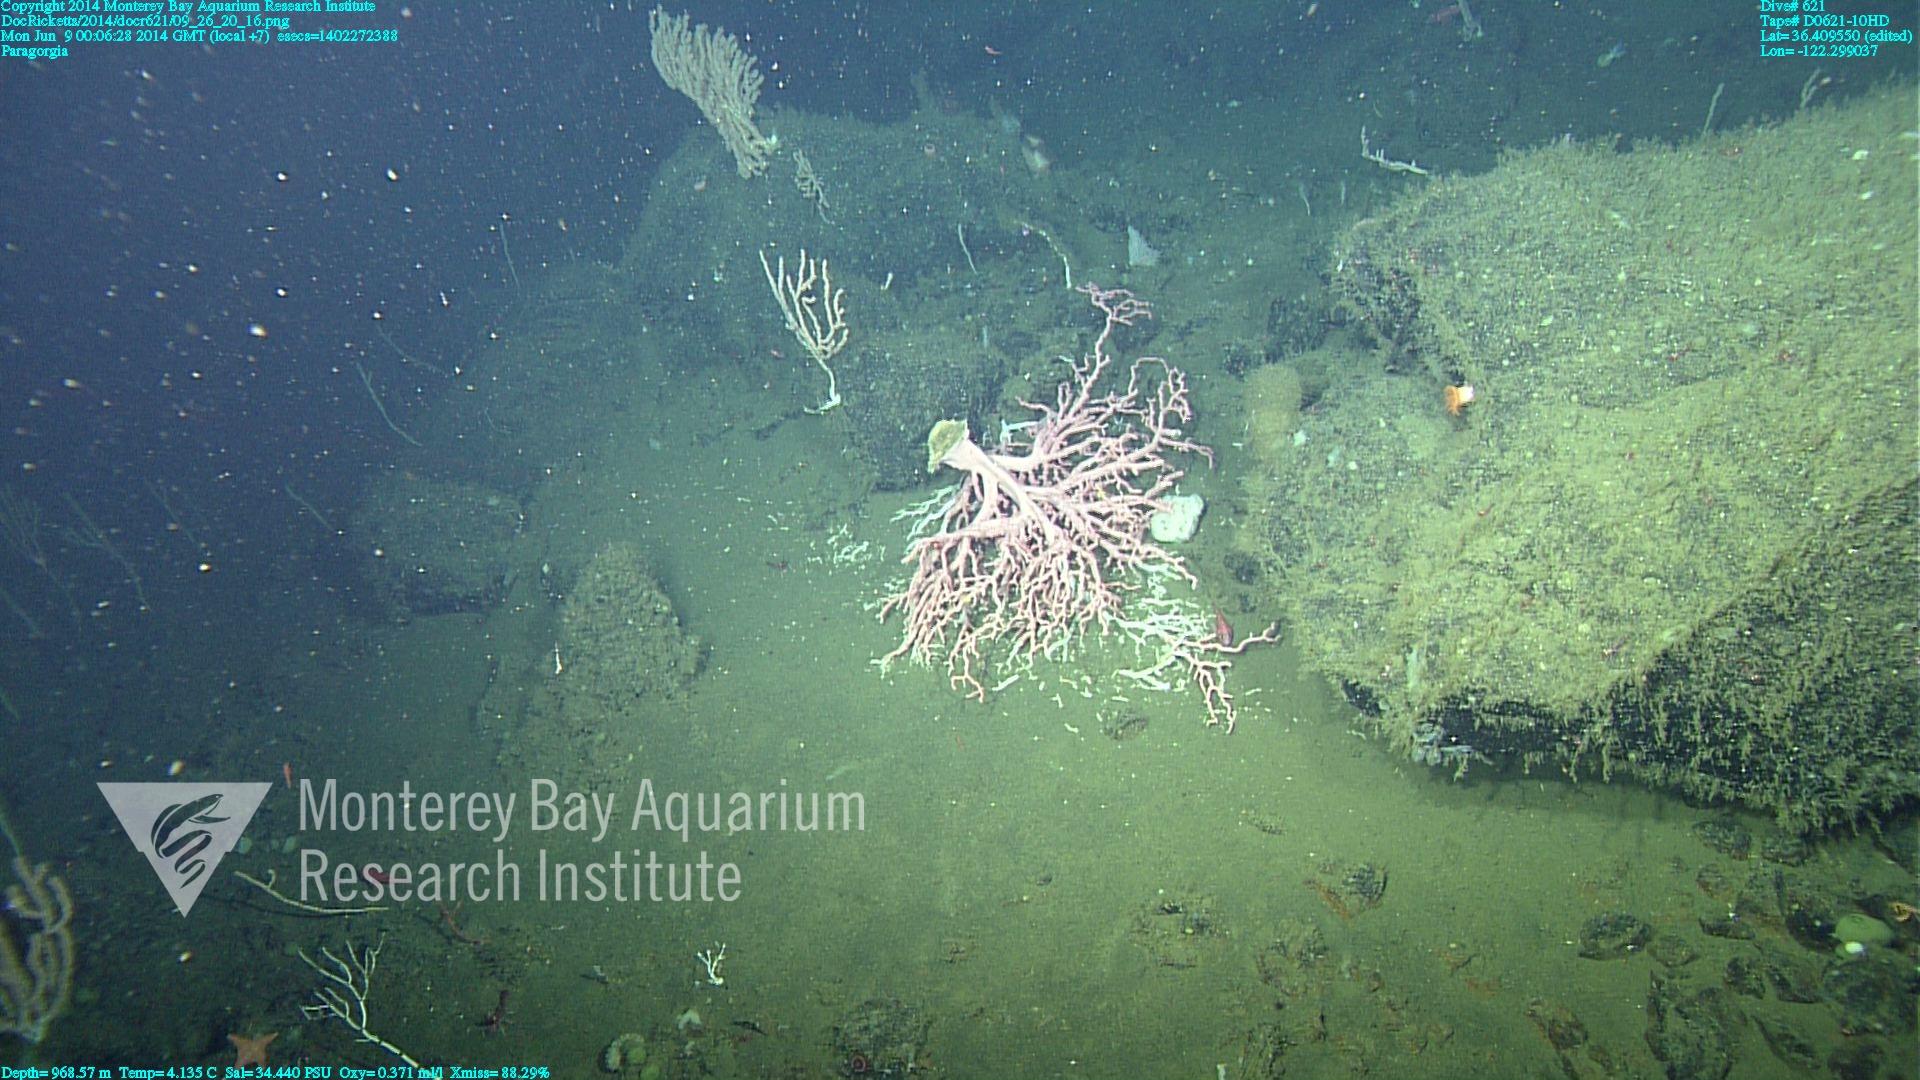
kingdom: Animalia
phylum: Cnidaria
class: Anthozoa
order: Scleralcyonacea
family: Coralliidae
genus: Paragorgia
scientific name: Paragorgia arborea
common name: Bubble gum coral
